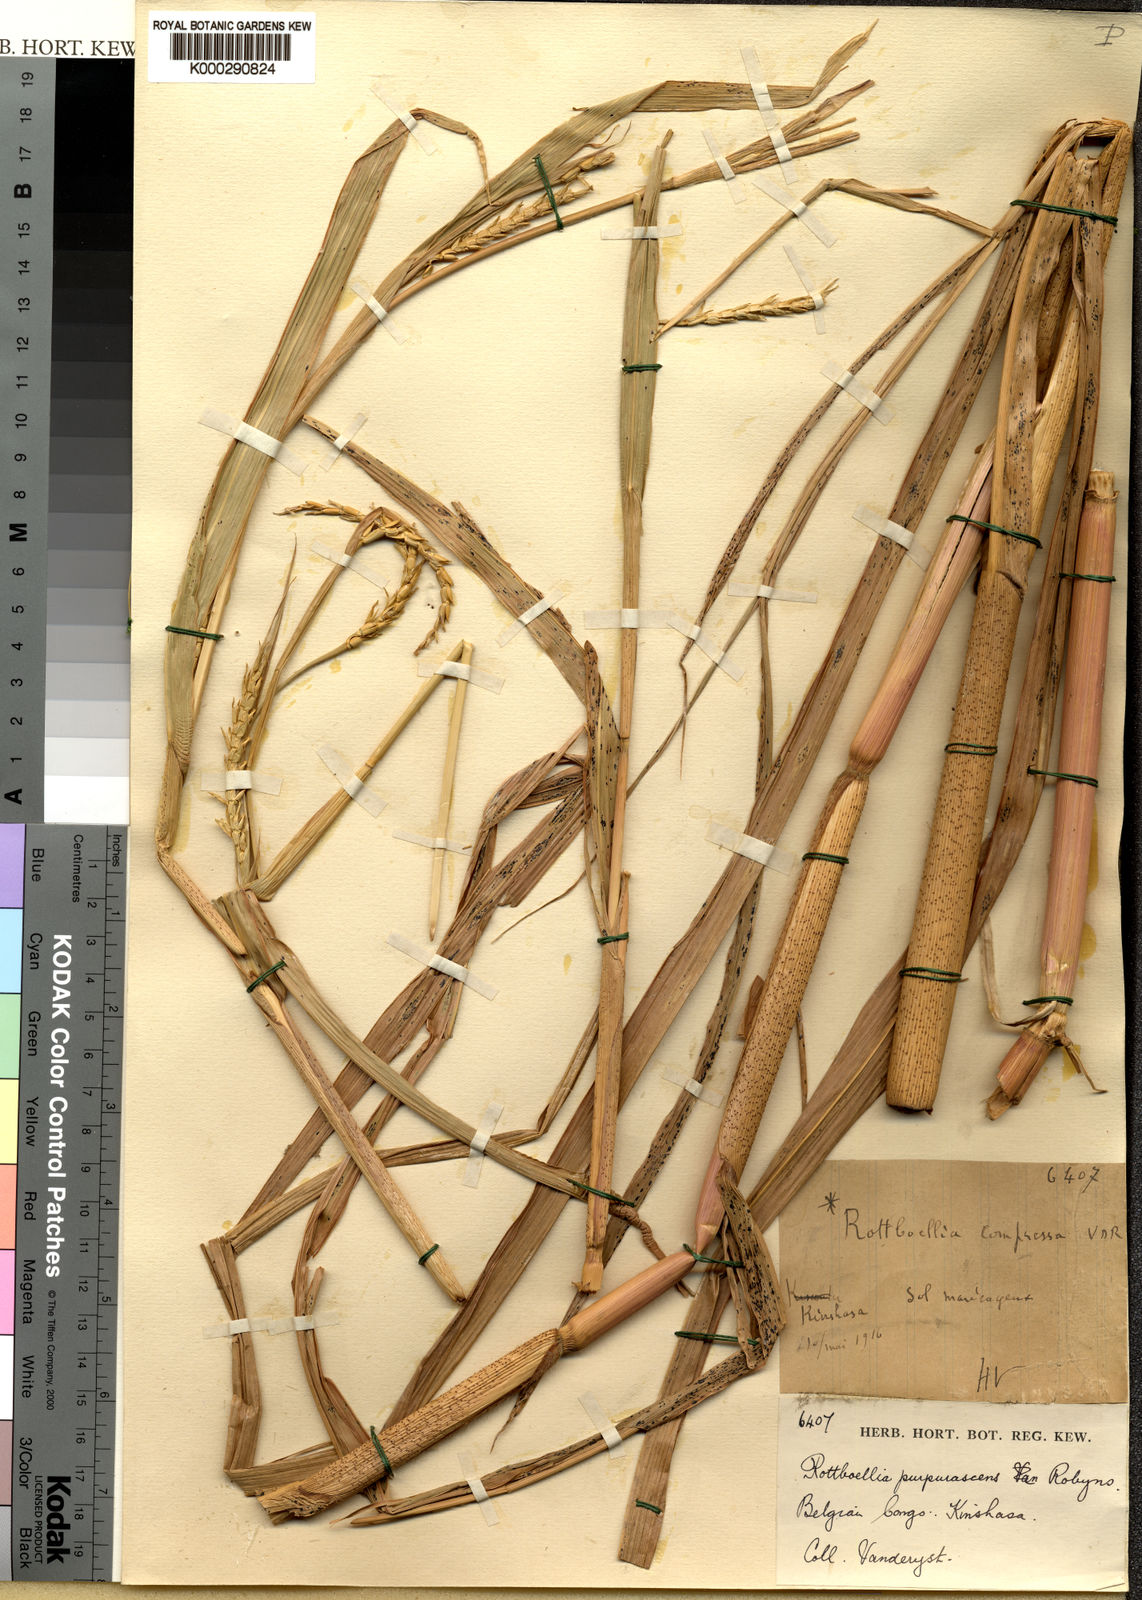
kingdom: Plantae
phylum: Tracheophyta
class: Liliopsida
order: Poales
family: Poaceae
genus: Rottboellia
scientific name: Rottboellia purpurascens
